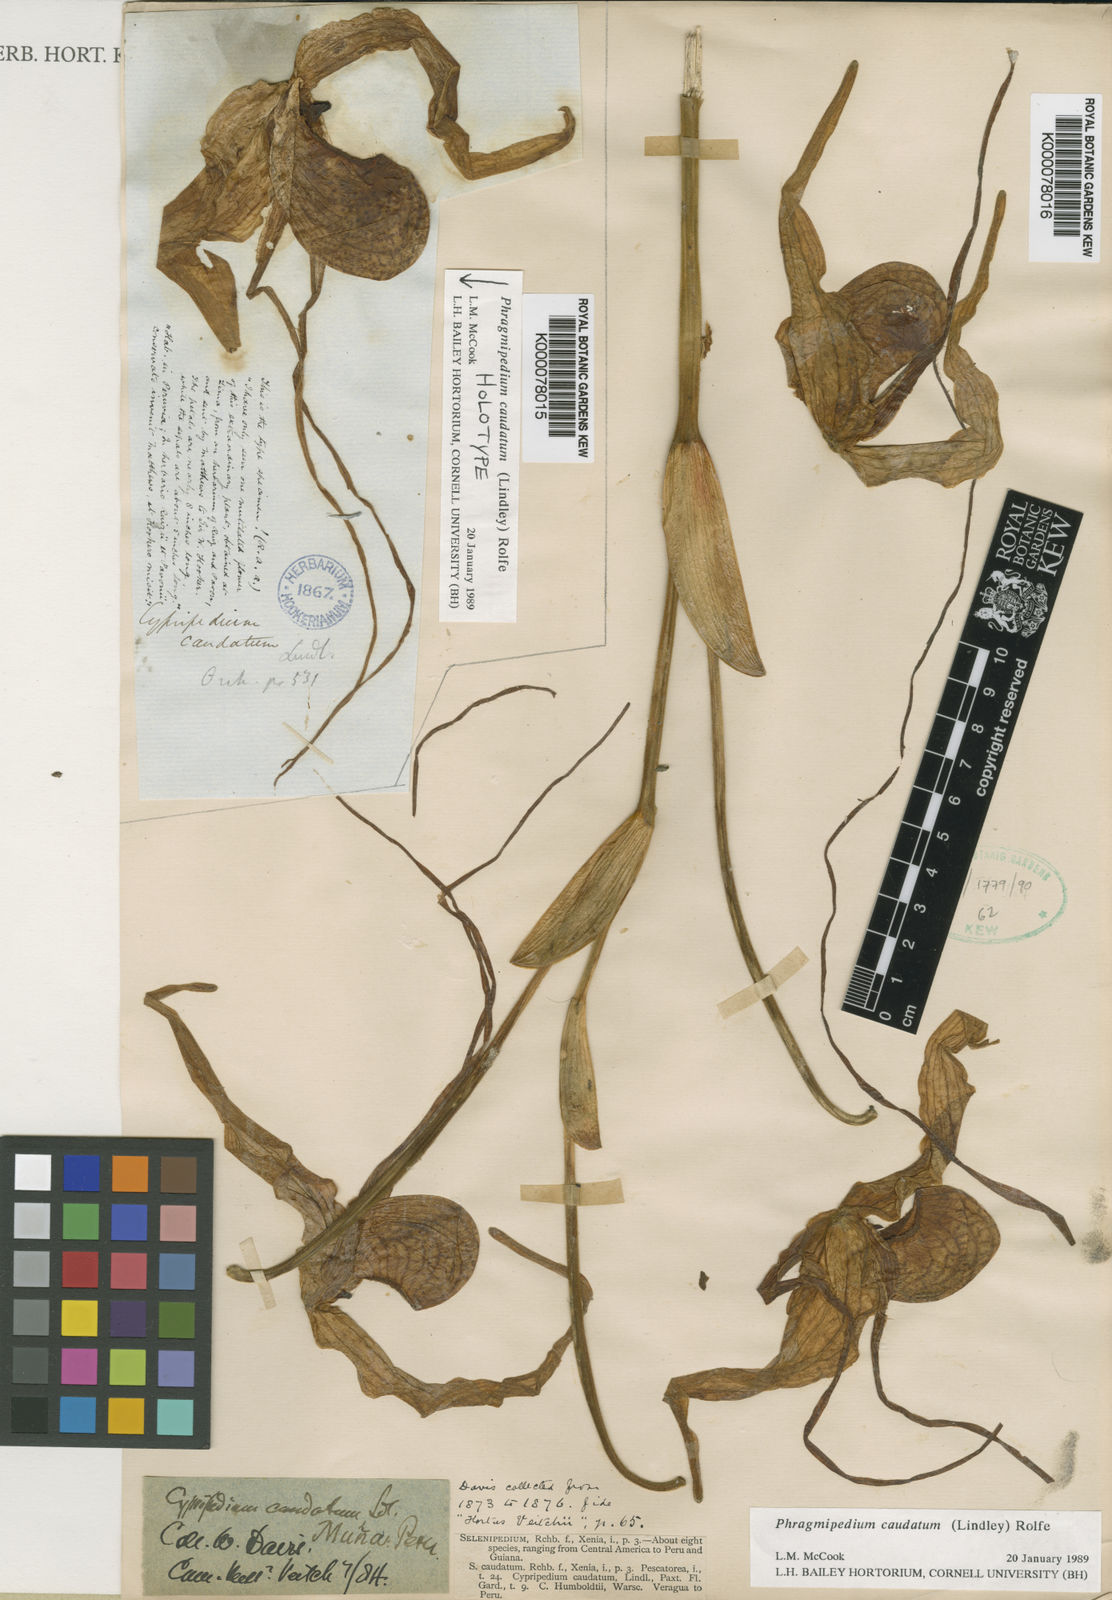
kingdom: Plantae
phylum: Tracheophyta
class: Liliopsida
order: Asparagales
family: Orchidaceae
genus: Phragmipedium
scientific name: Phragmipedium caudatum
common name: Tailed phragmipedium
